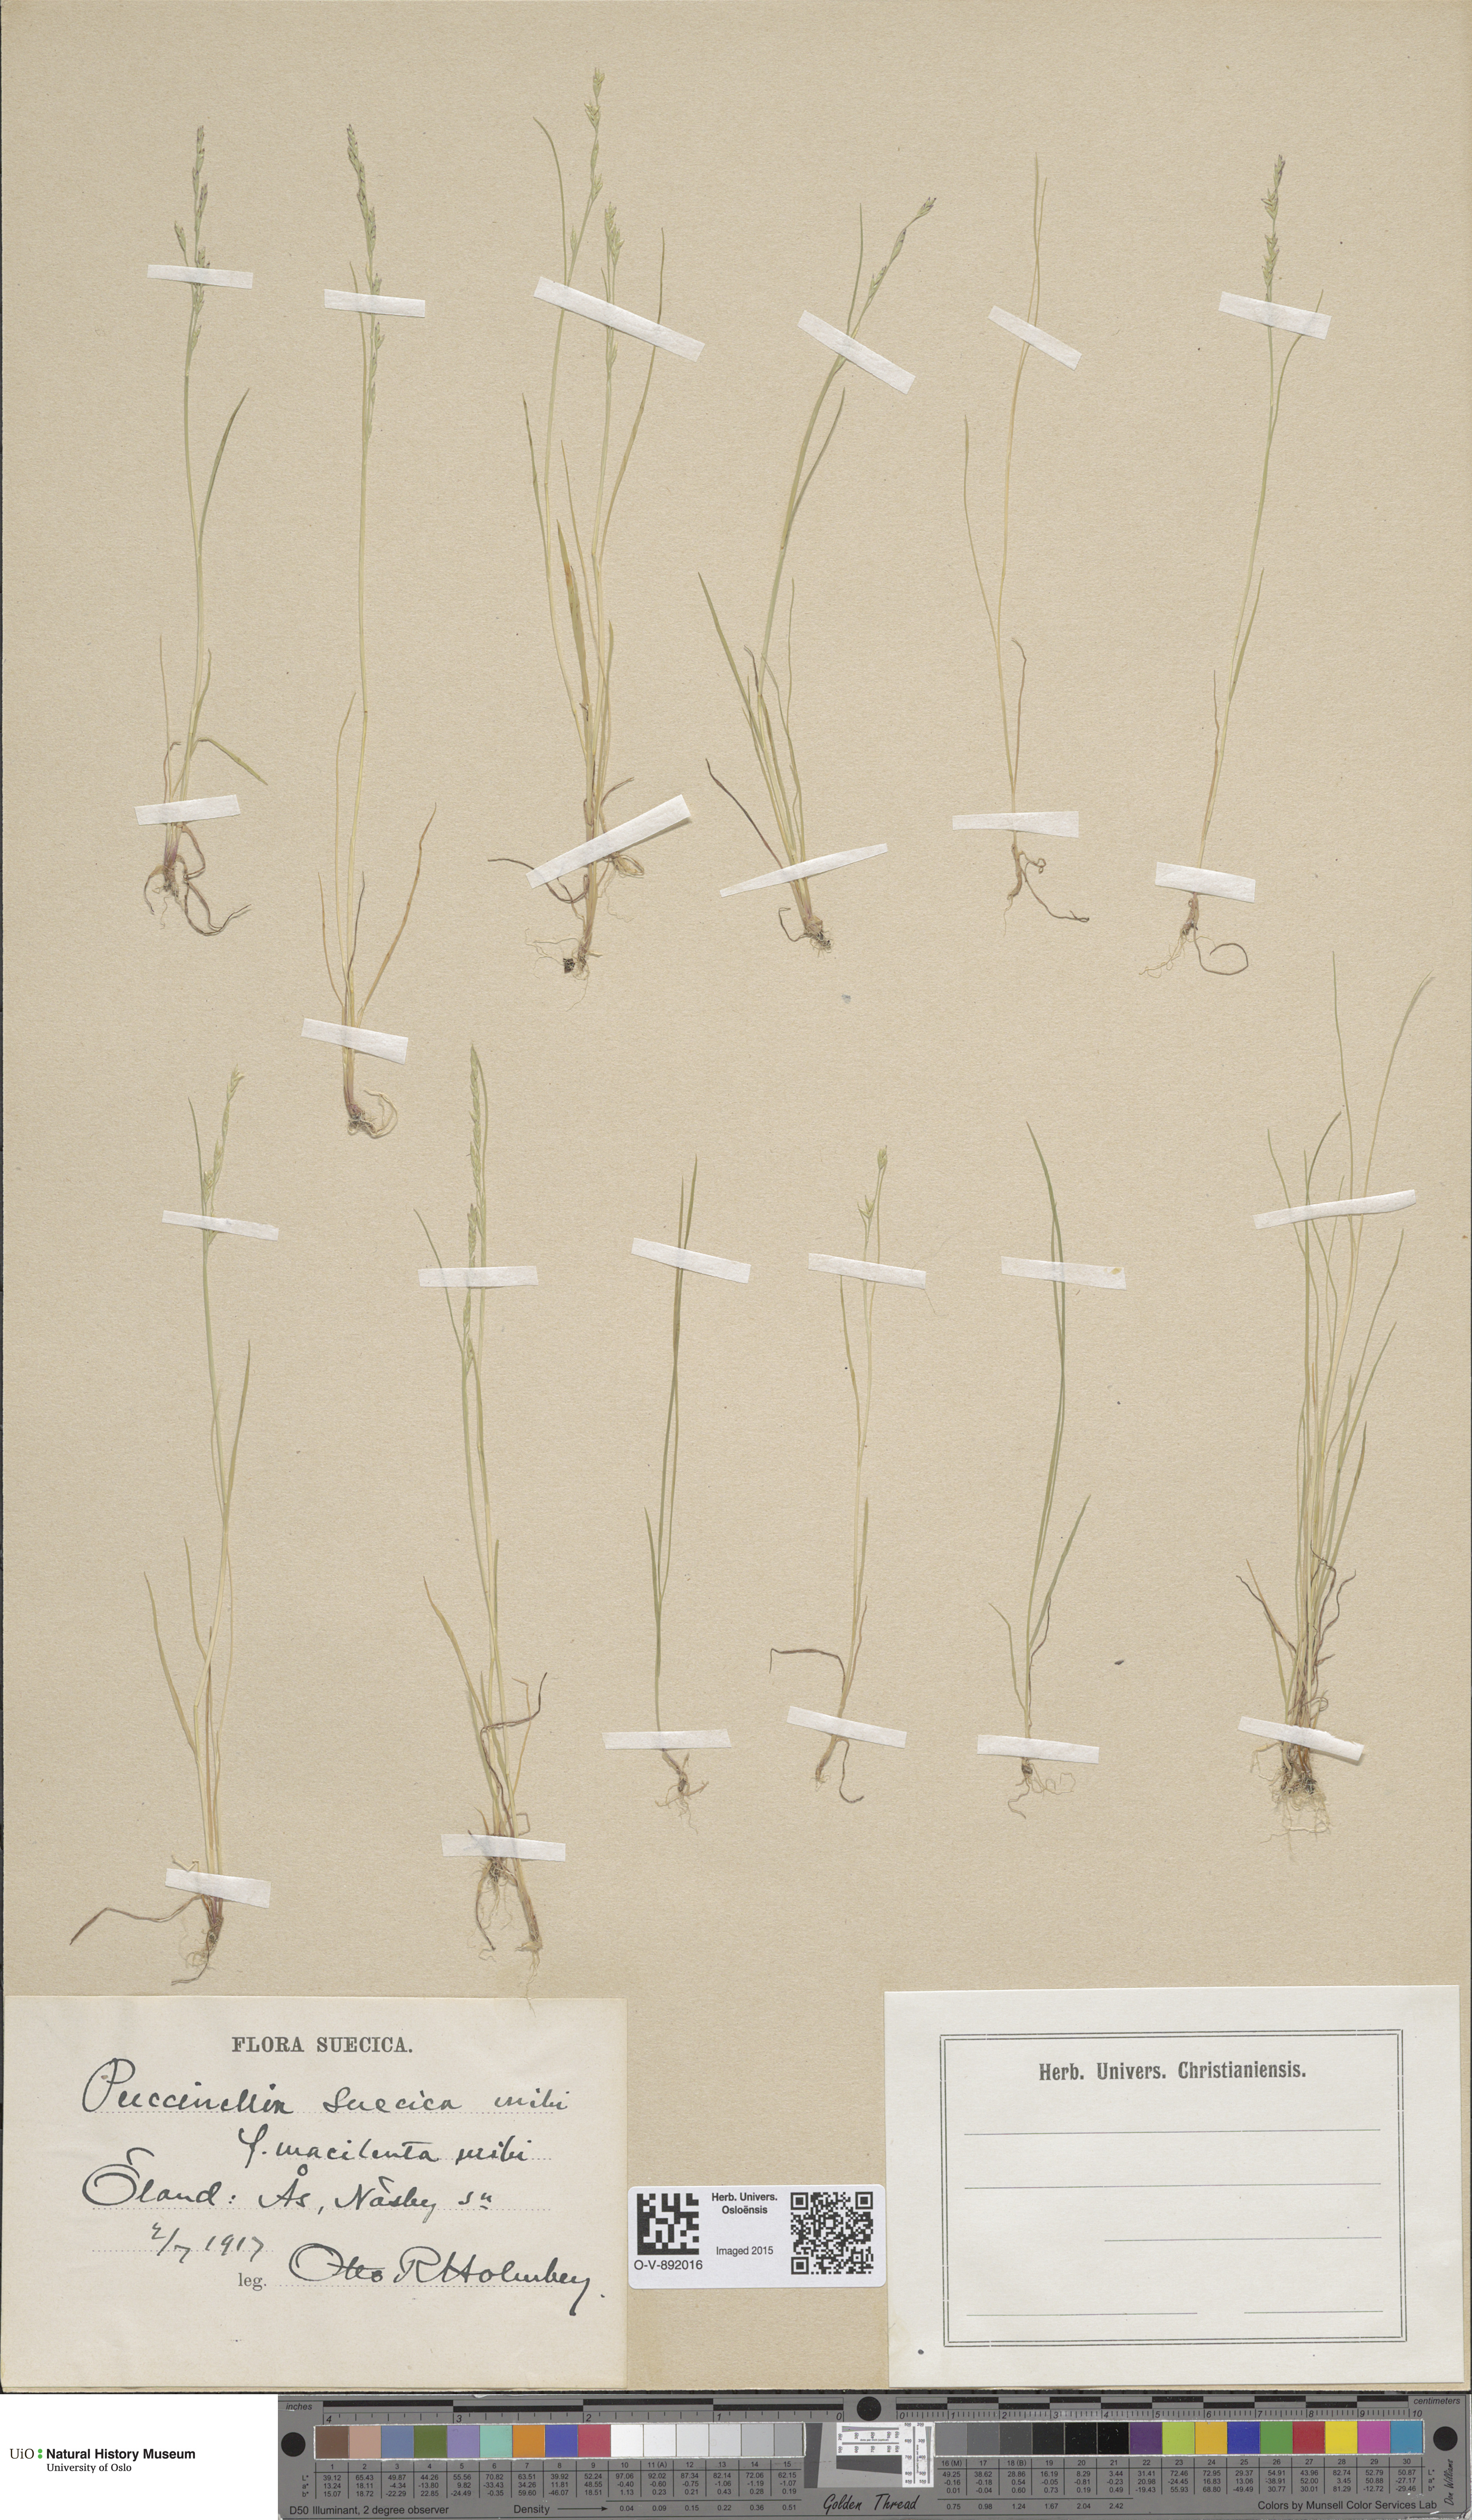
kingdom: Plantae
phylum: Tracheophyta
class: Liliopsida
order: Poales
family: Poaceae
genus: Puccinellia
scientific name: Puccinellia distans
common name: Weeping alkaligrass
